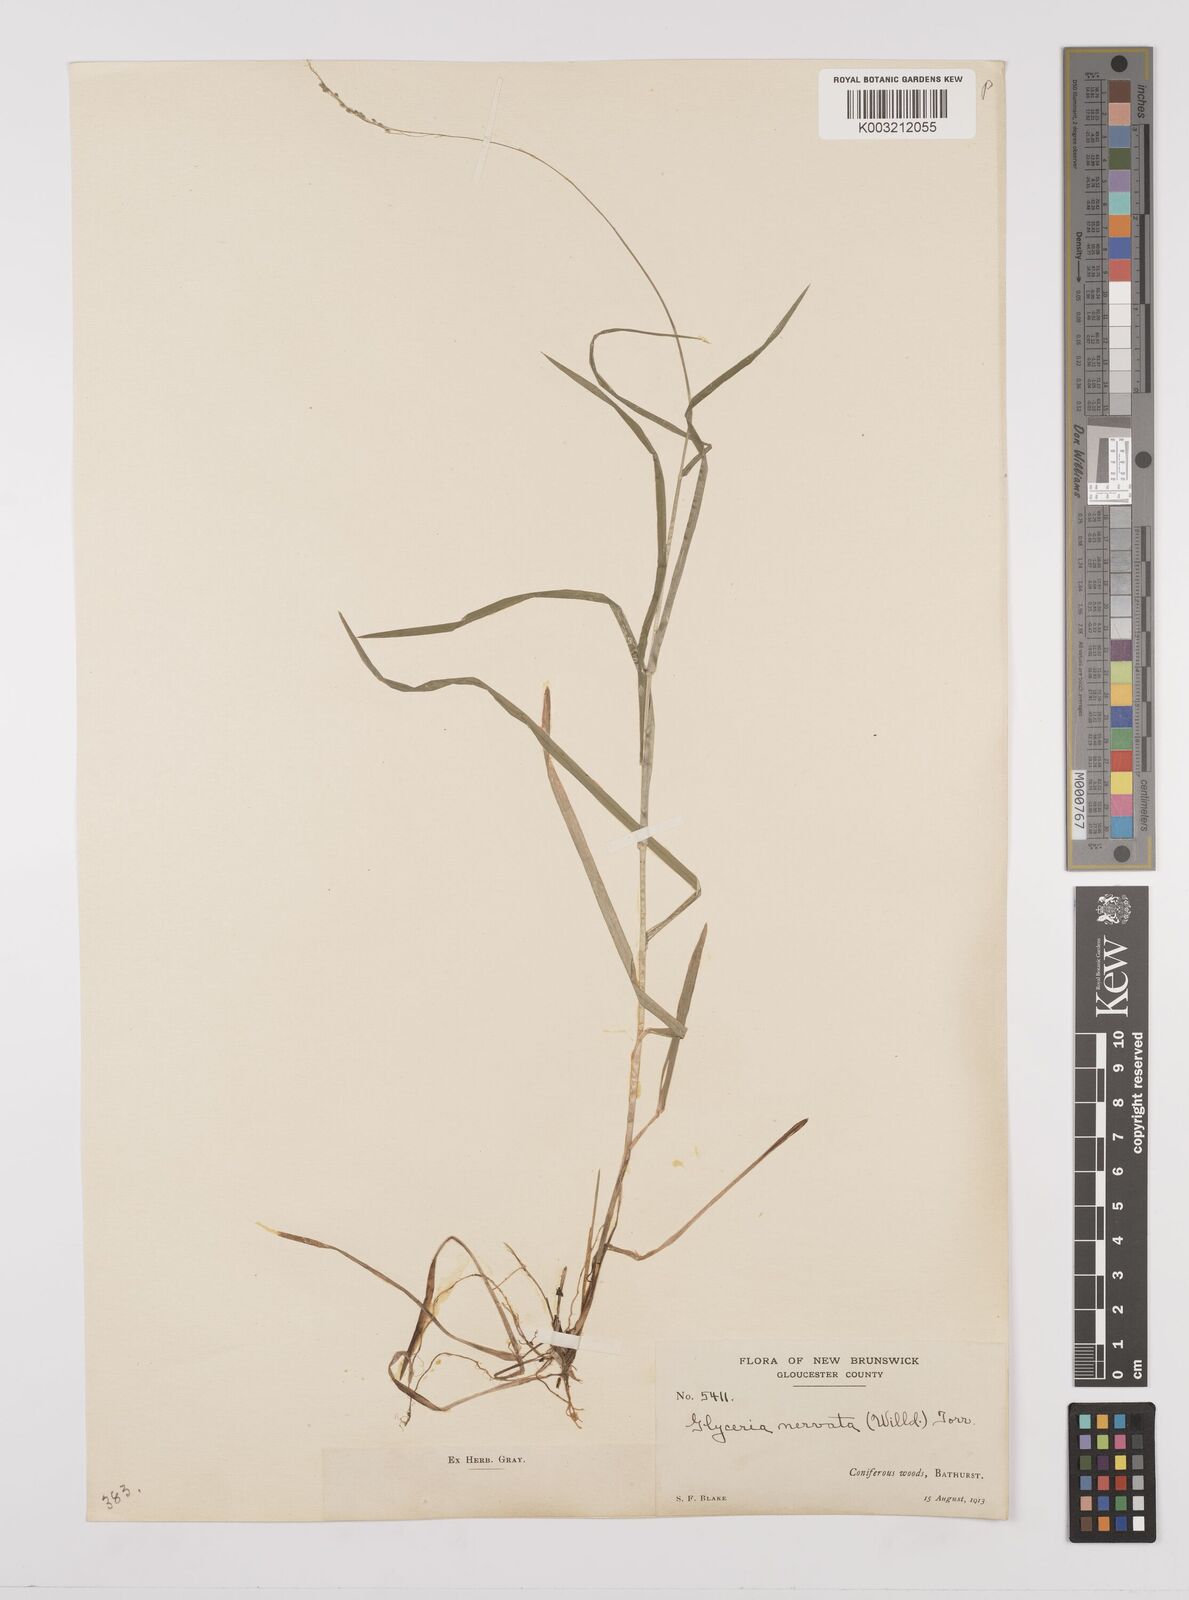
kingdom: Plantae
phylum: Tracheophyta
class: Liliopsida
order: Poales
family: Poaceae
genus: Glyceria
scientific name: Glyceria striata
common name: Fowl manna grass
